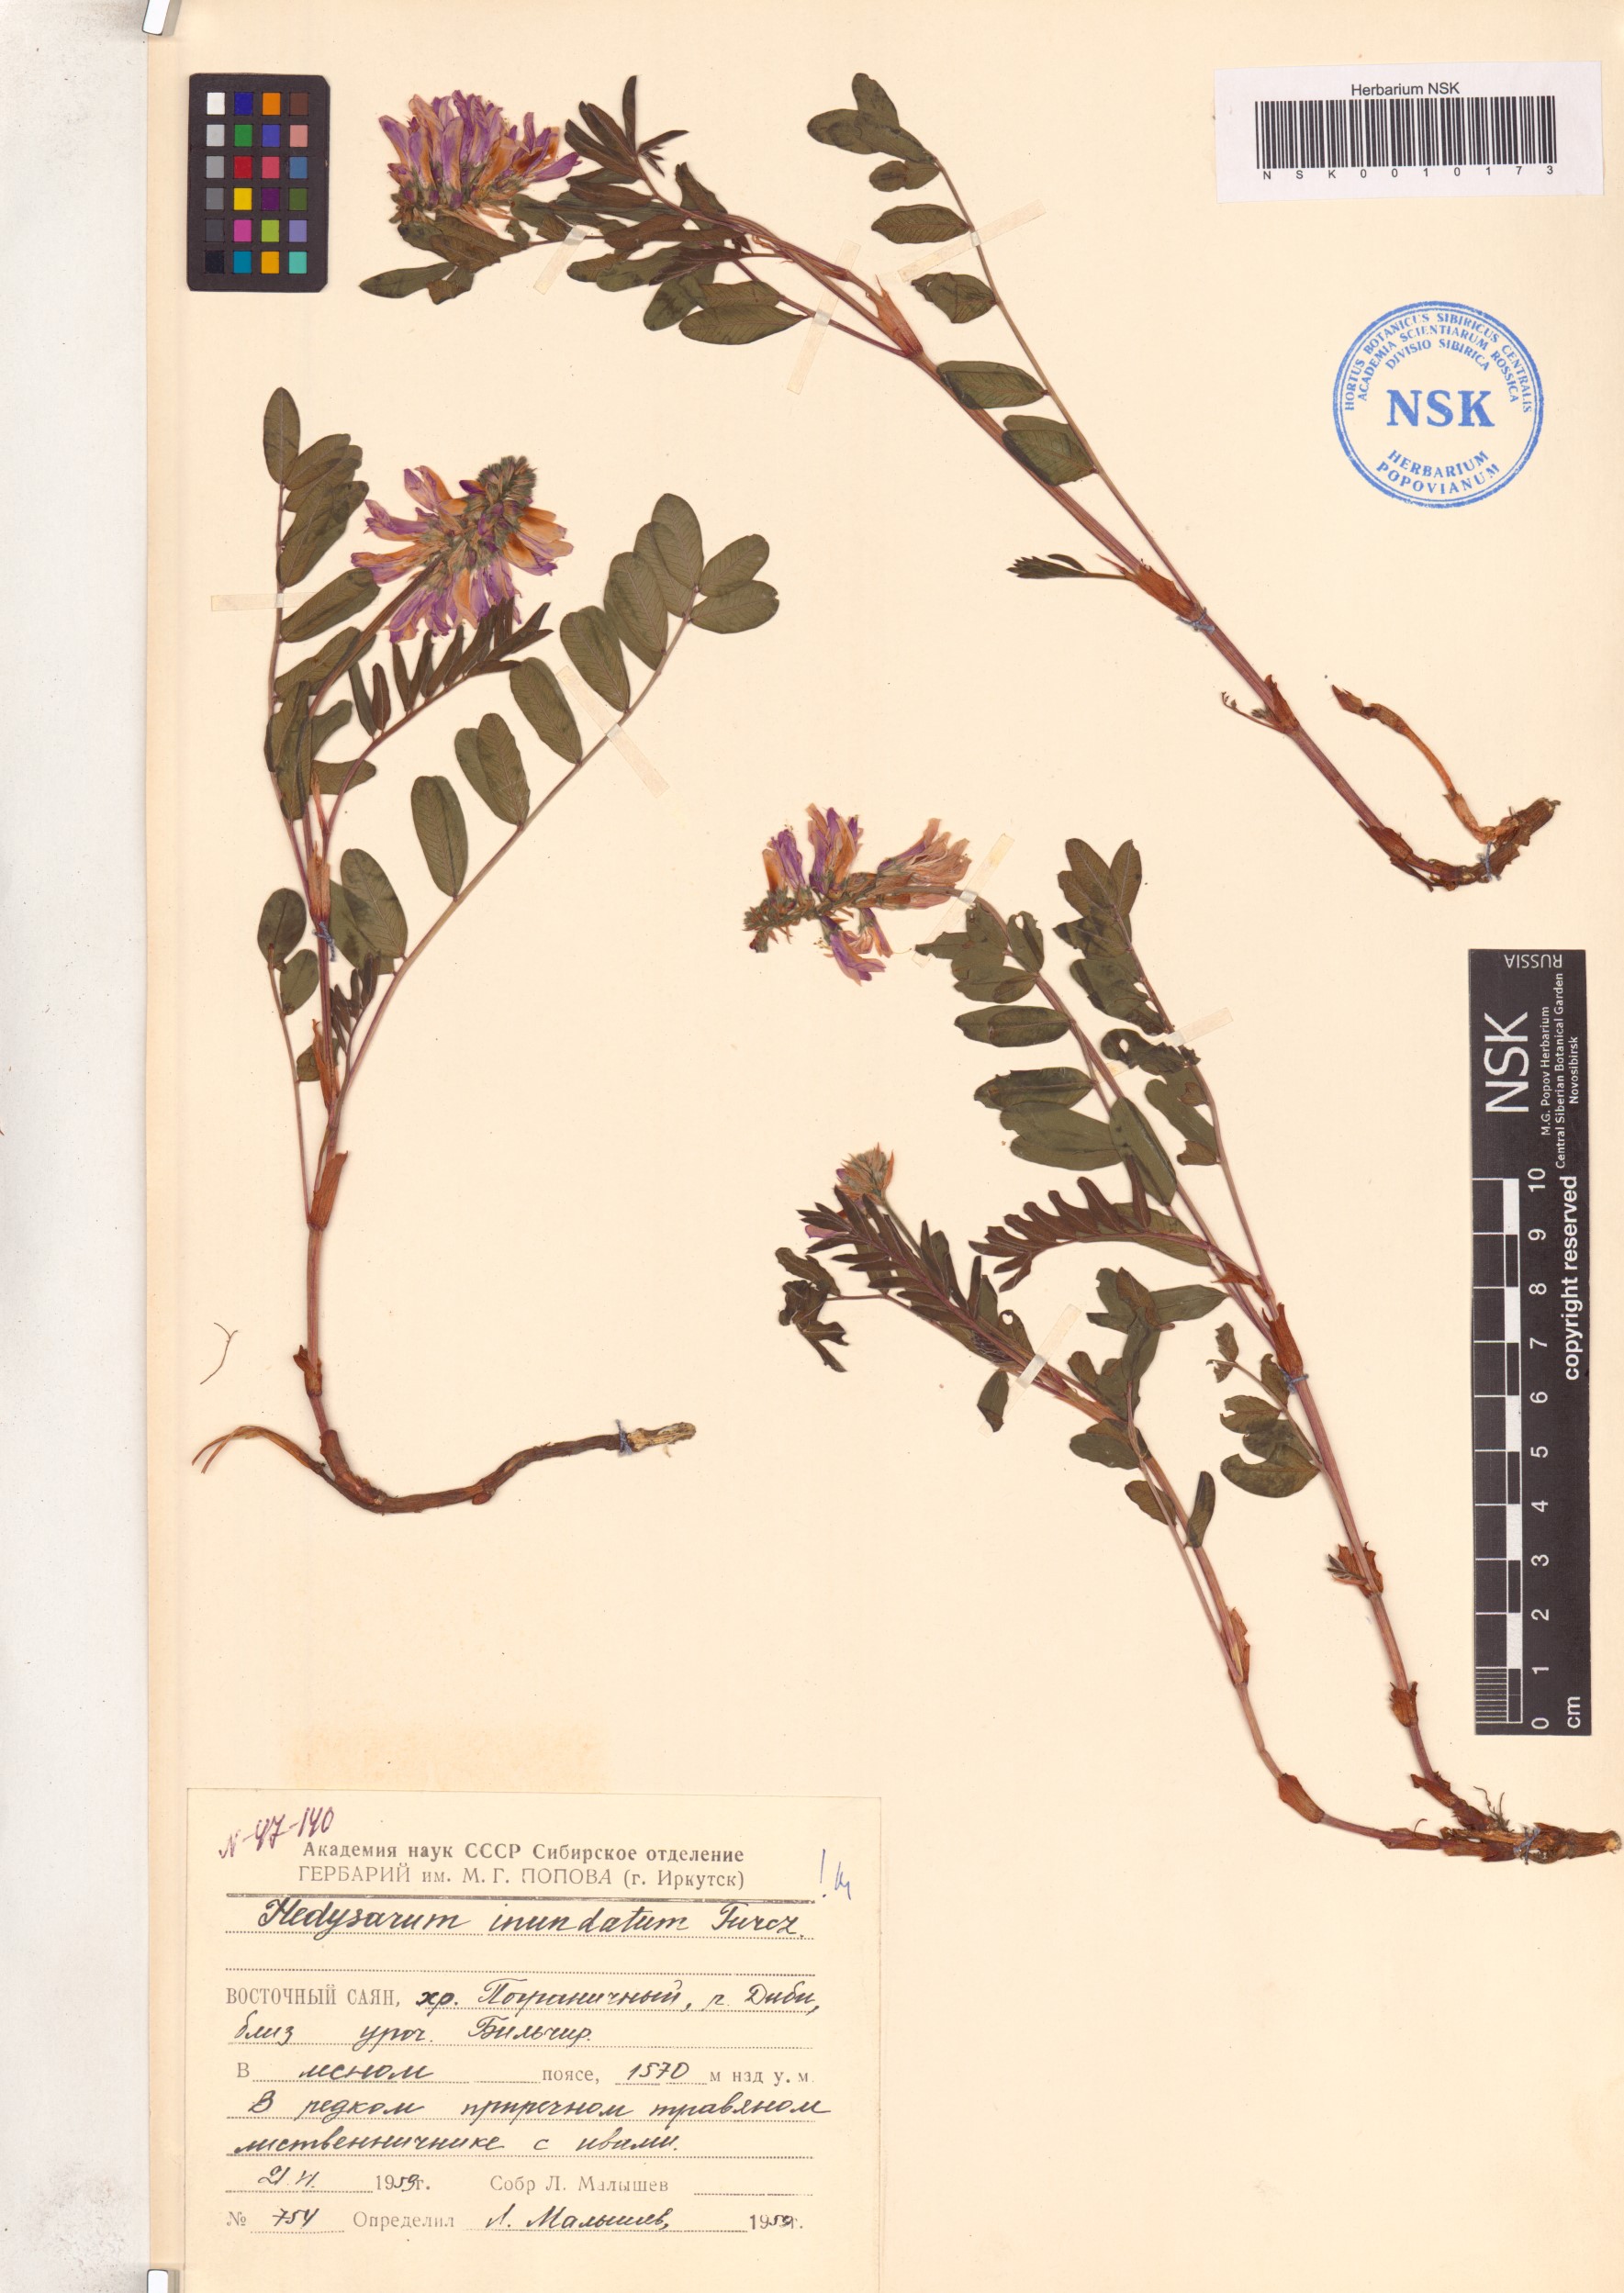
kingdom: Plantae
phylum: Tracheophyta
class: Magnoliopsida
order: Fabales
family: Fabaceae
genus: Hedysarum
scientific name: Hedysarum inundatum
